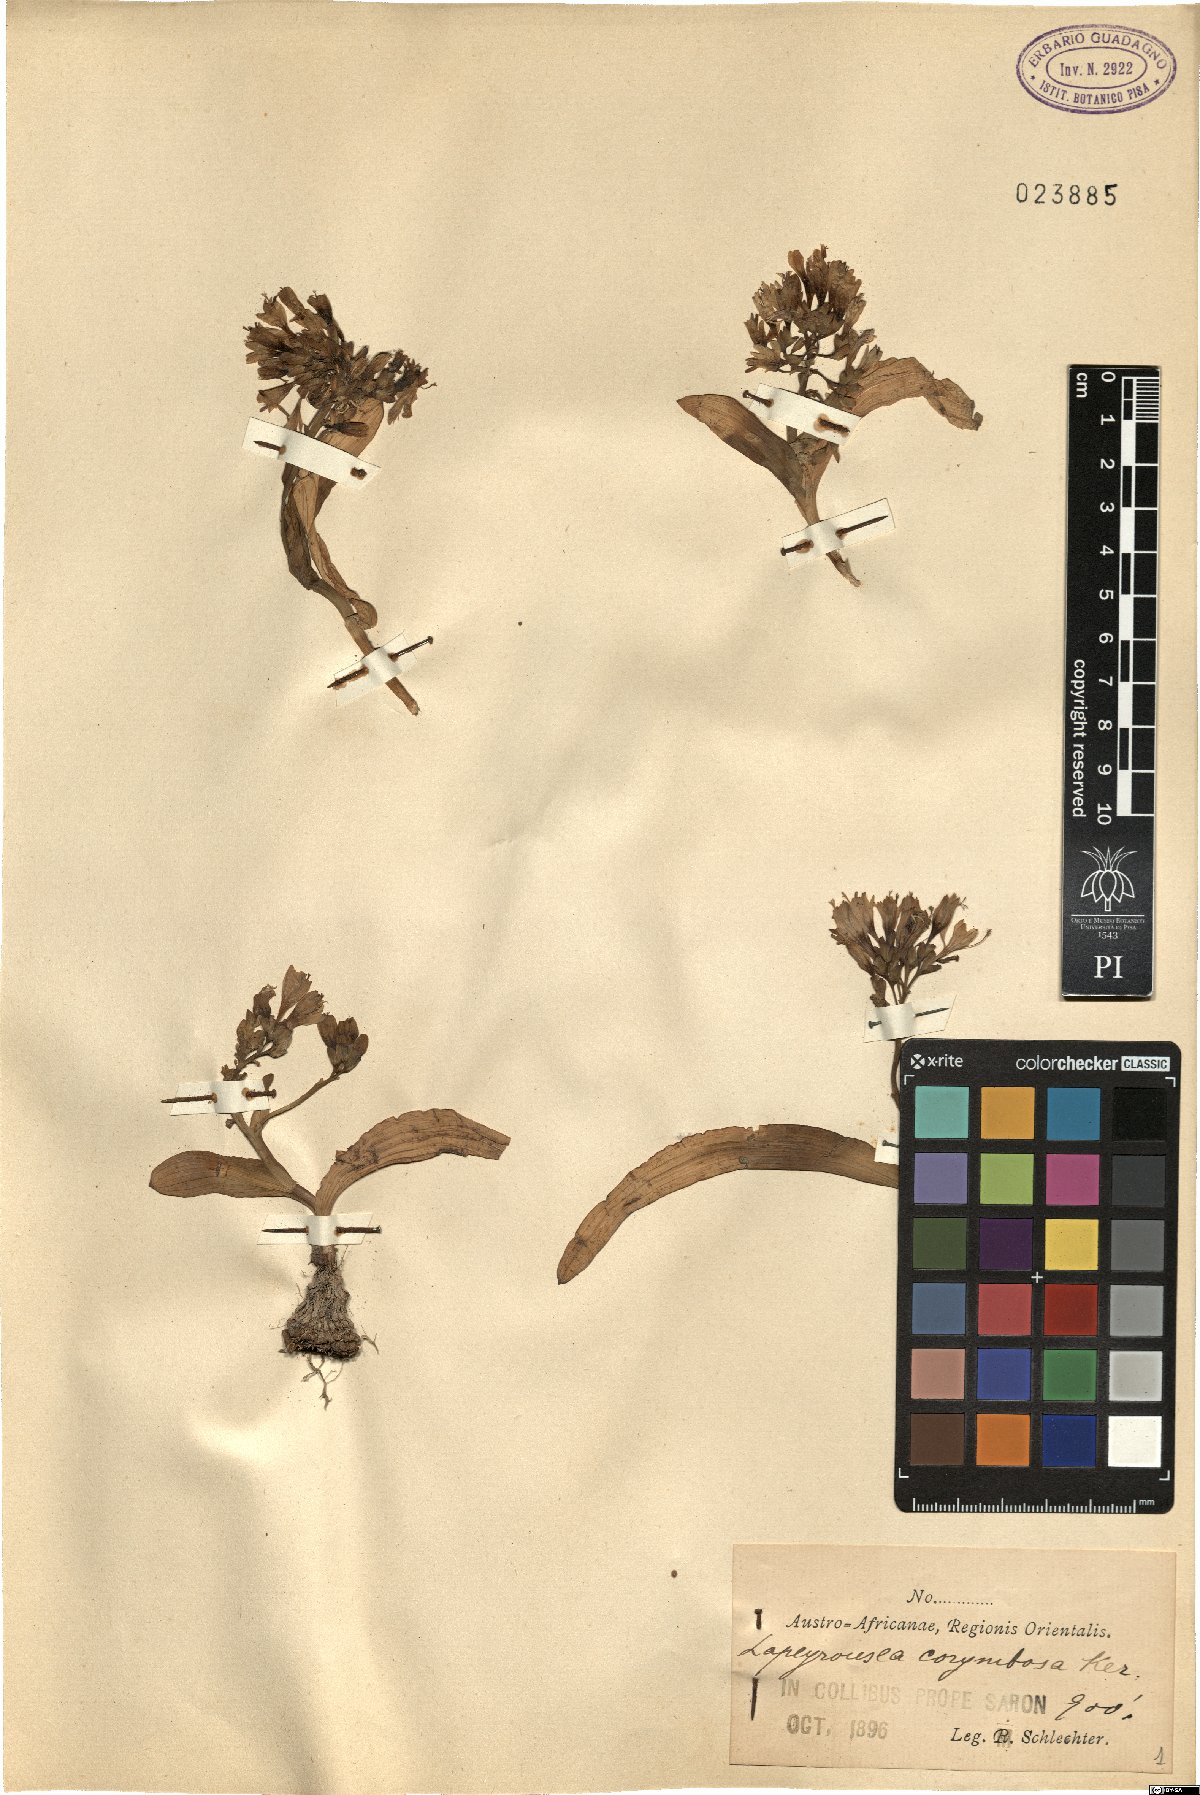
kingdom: Plantae
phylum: Tracheophyta
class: Liliopsida
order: Asparagales
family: Iridaceae
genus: Codonorhiza
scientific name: Codonorhiza corymbosa
